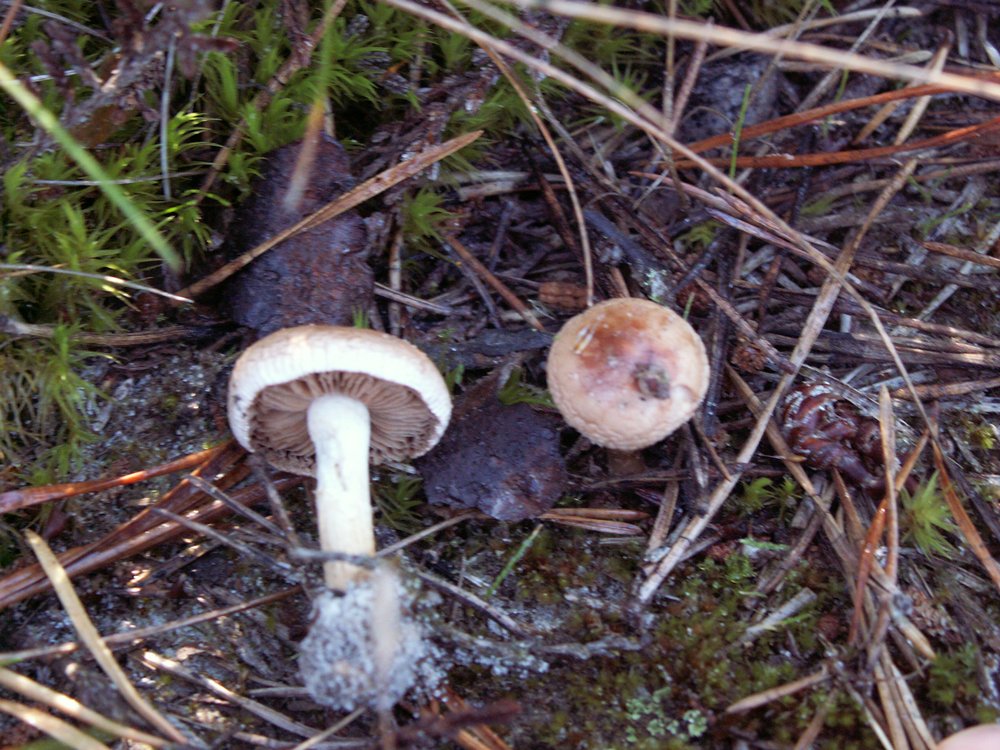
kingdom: Fungi
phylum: Basidiomycota
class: Agaricomycetes
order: Agaricales
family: Hymenogastraceae
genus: Hebeloma
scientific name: Hebeloma cylindrosporum
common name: fyrre-tåreblad
